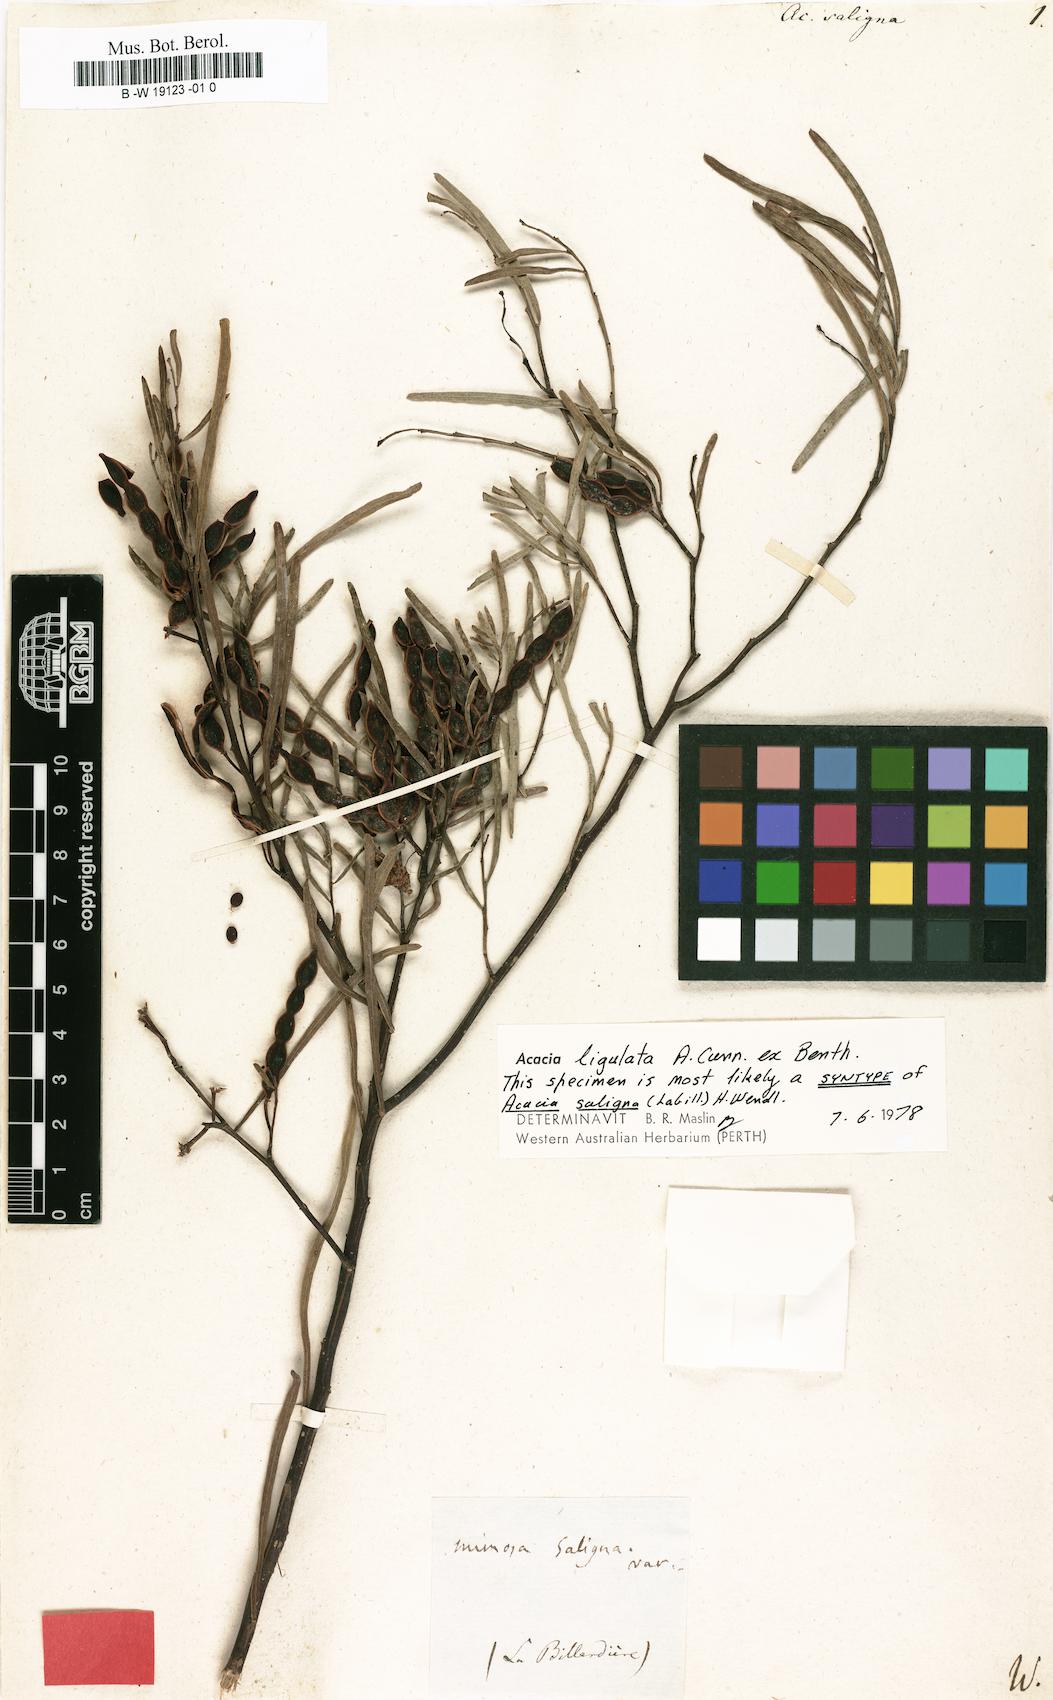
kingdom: Plantae
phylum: Tracheophyta
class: Magnoliopsida
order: Fabales
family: Fabaceae
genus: Acacia
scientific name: Acacia saligna
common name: Orange wattle
